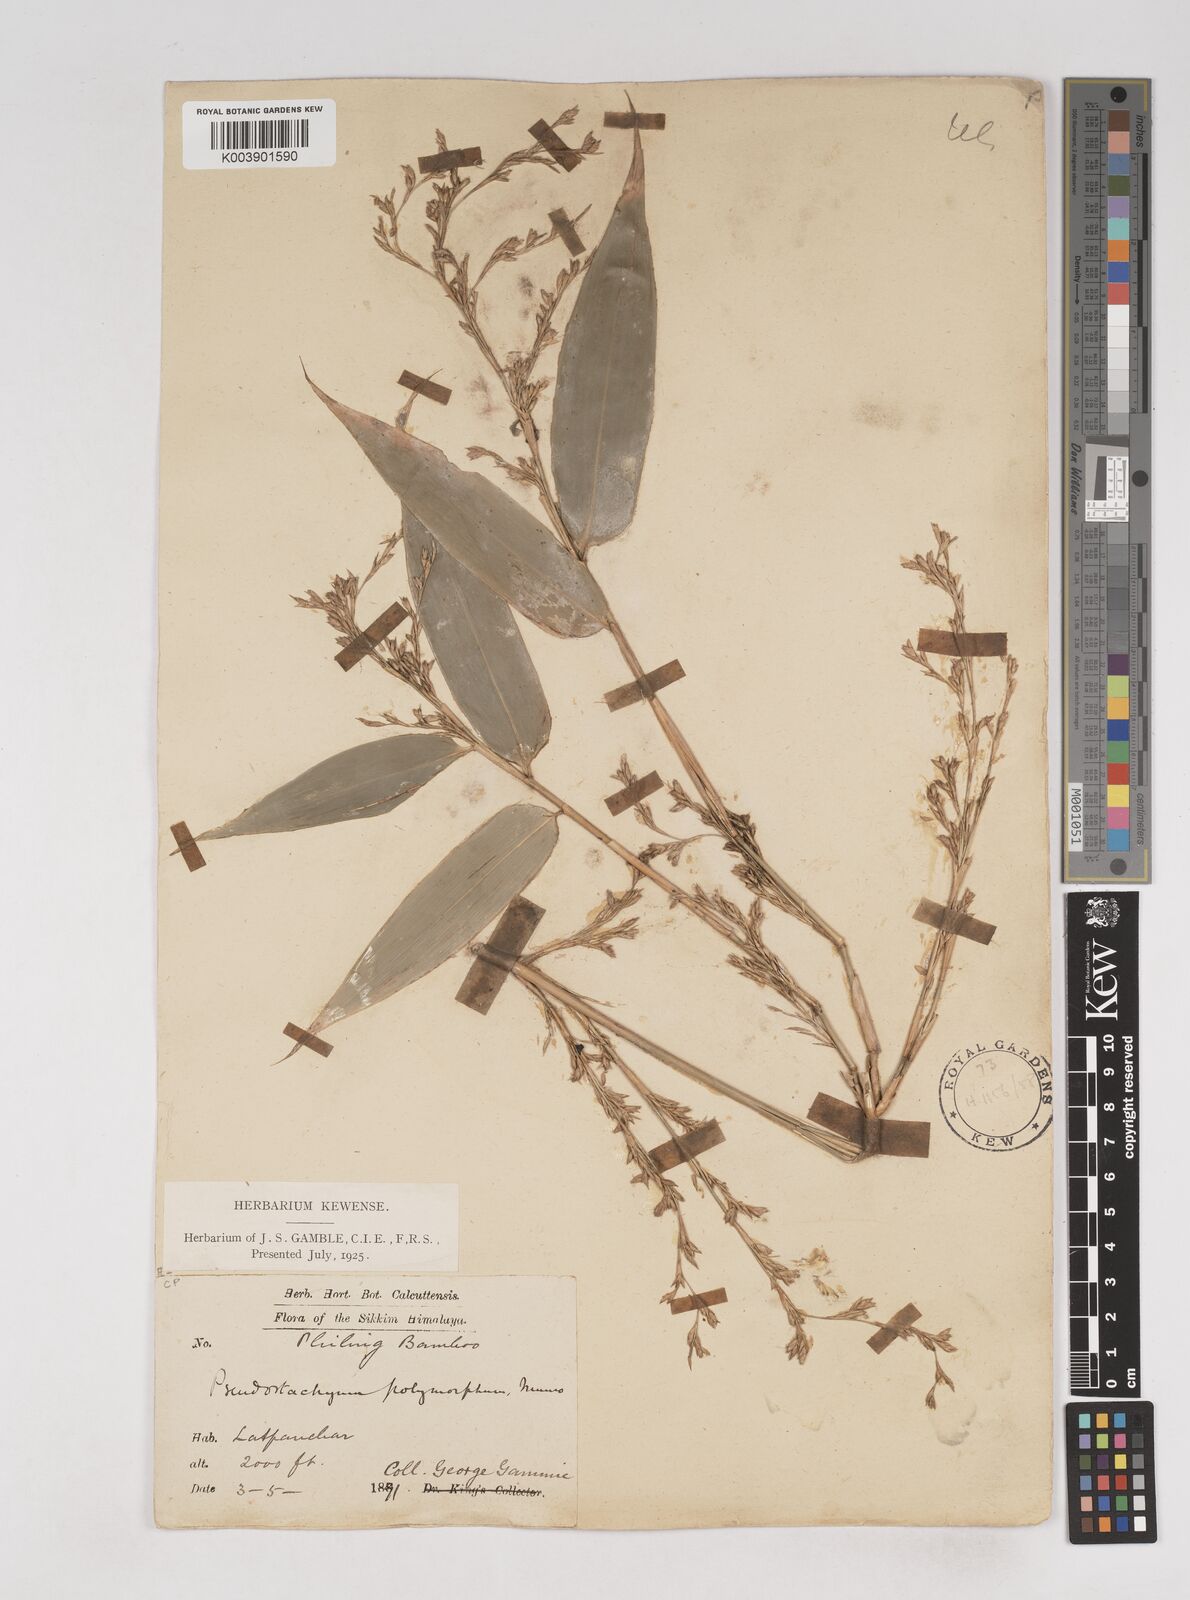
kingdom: Plantae
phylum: Tracheophyta
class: Liliopsida
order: Poales
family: Poaceae
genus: Pseudostachyum
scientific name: Pseudostachyum polymorphum
